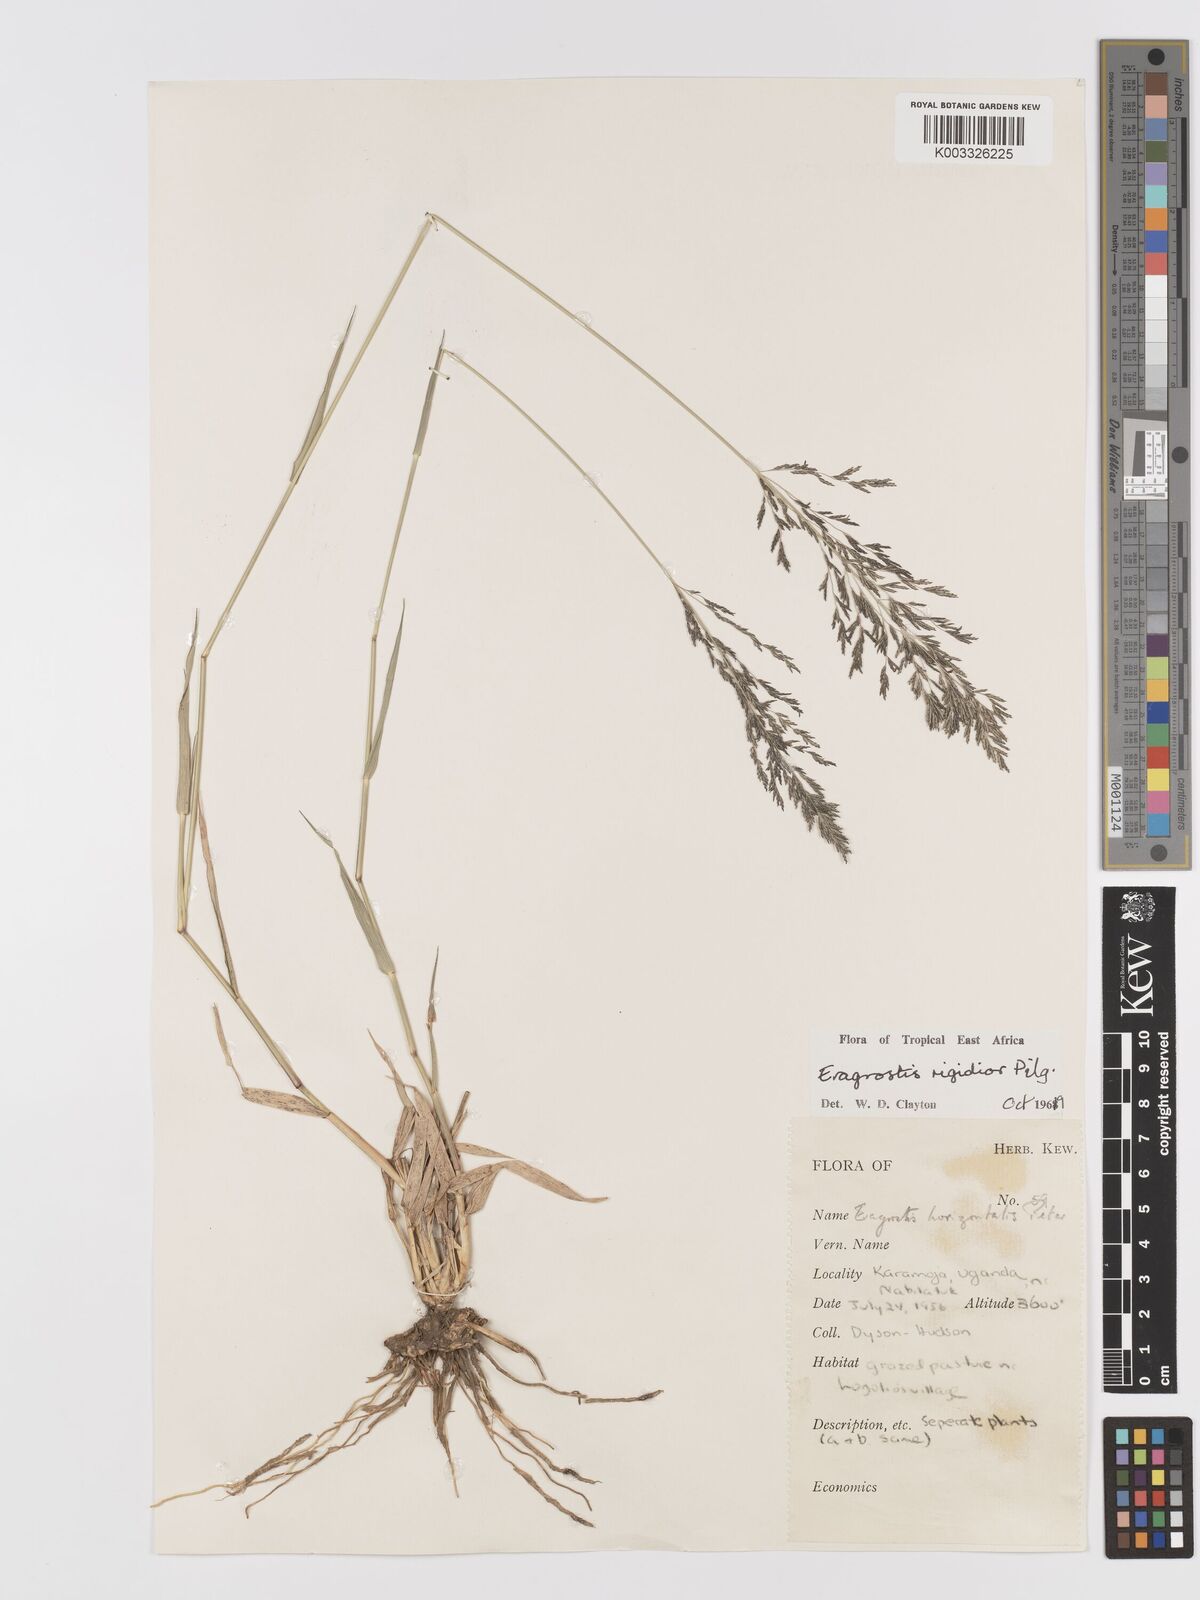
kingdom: Plantae
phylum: Tracheophyta
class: Liliopsida
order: Poales
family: Poaceae
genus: Eragrostis
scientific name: Eragrostis cylindriflora
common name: Cylinderflower lovegrass
